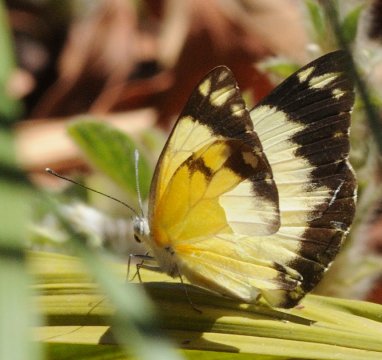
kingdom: Animalia
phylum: Arthropoda
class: Insecta
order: Lepidoptera
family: Pieridae
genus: Belenois
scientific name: Belenois creona
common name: African Caper
